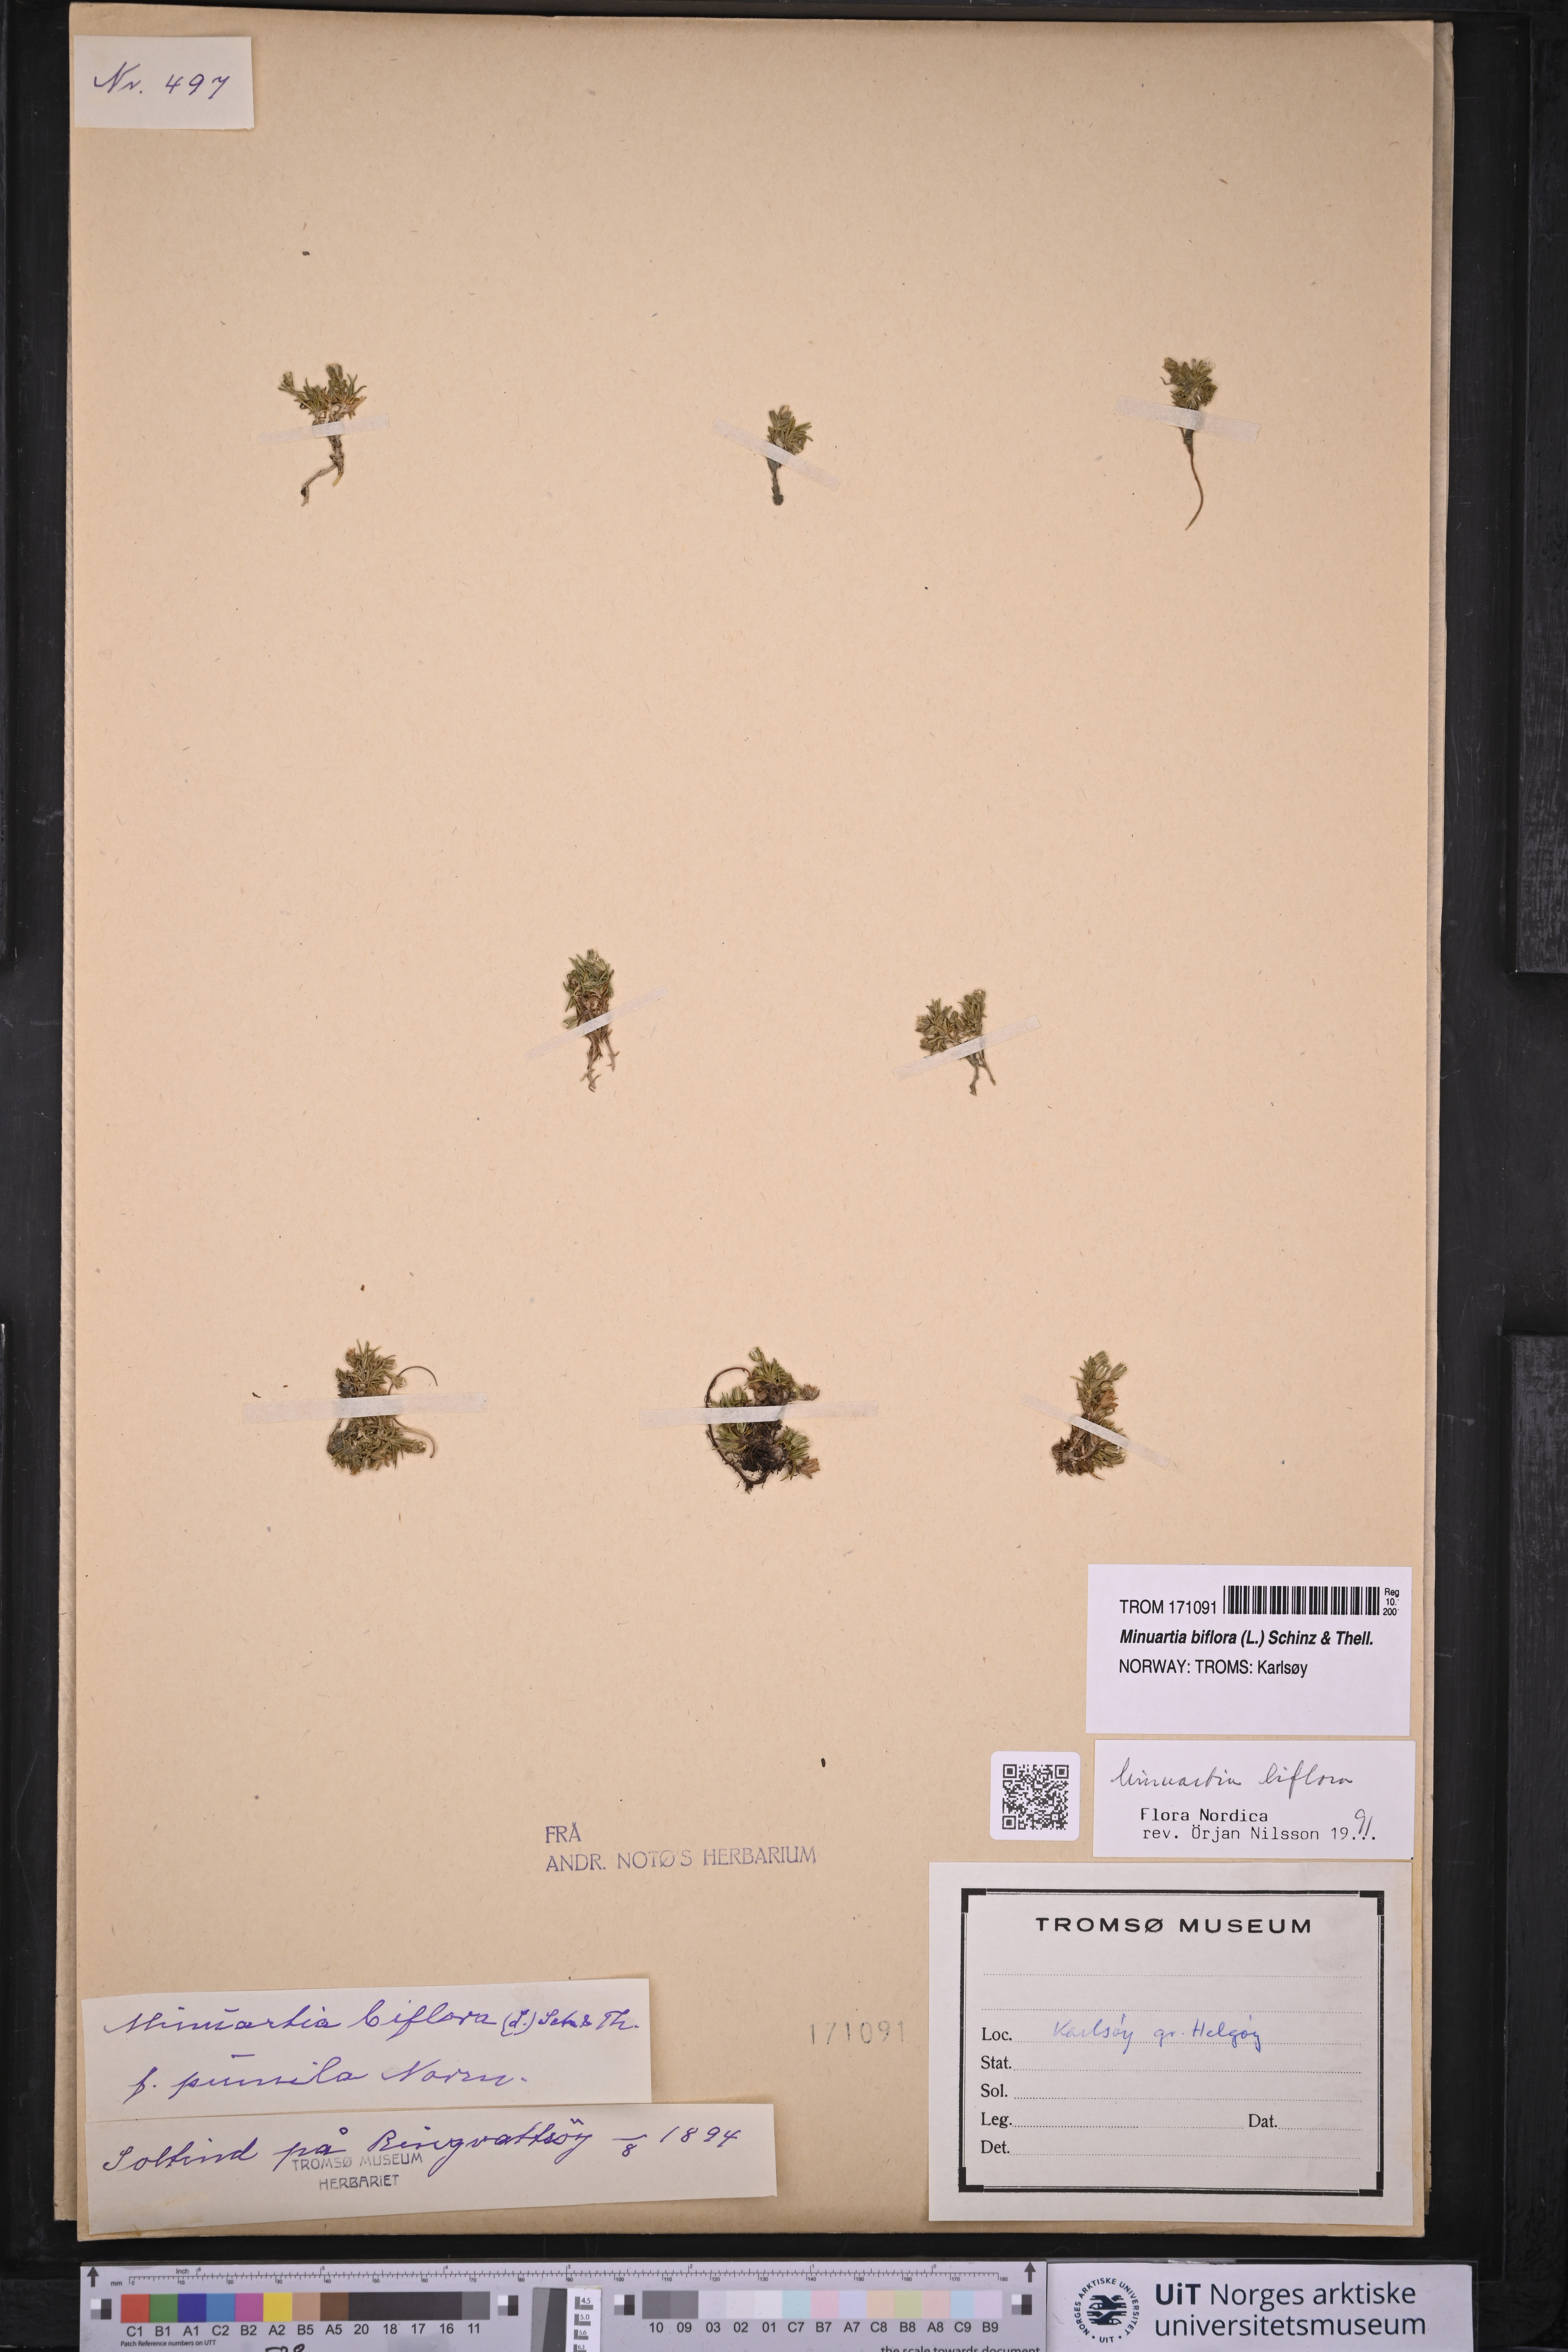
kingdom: Plantae
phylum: Tracheophyta
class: Magnoliopsida
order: Caryophyllales
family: Caryophyllaceae
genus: Cherleria
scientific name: Cherleria biflora
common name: Mountain sandwort
